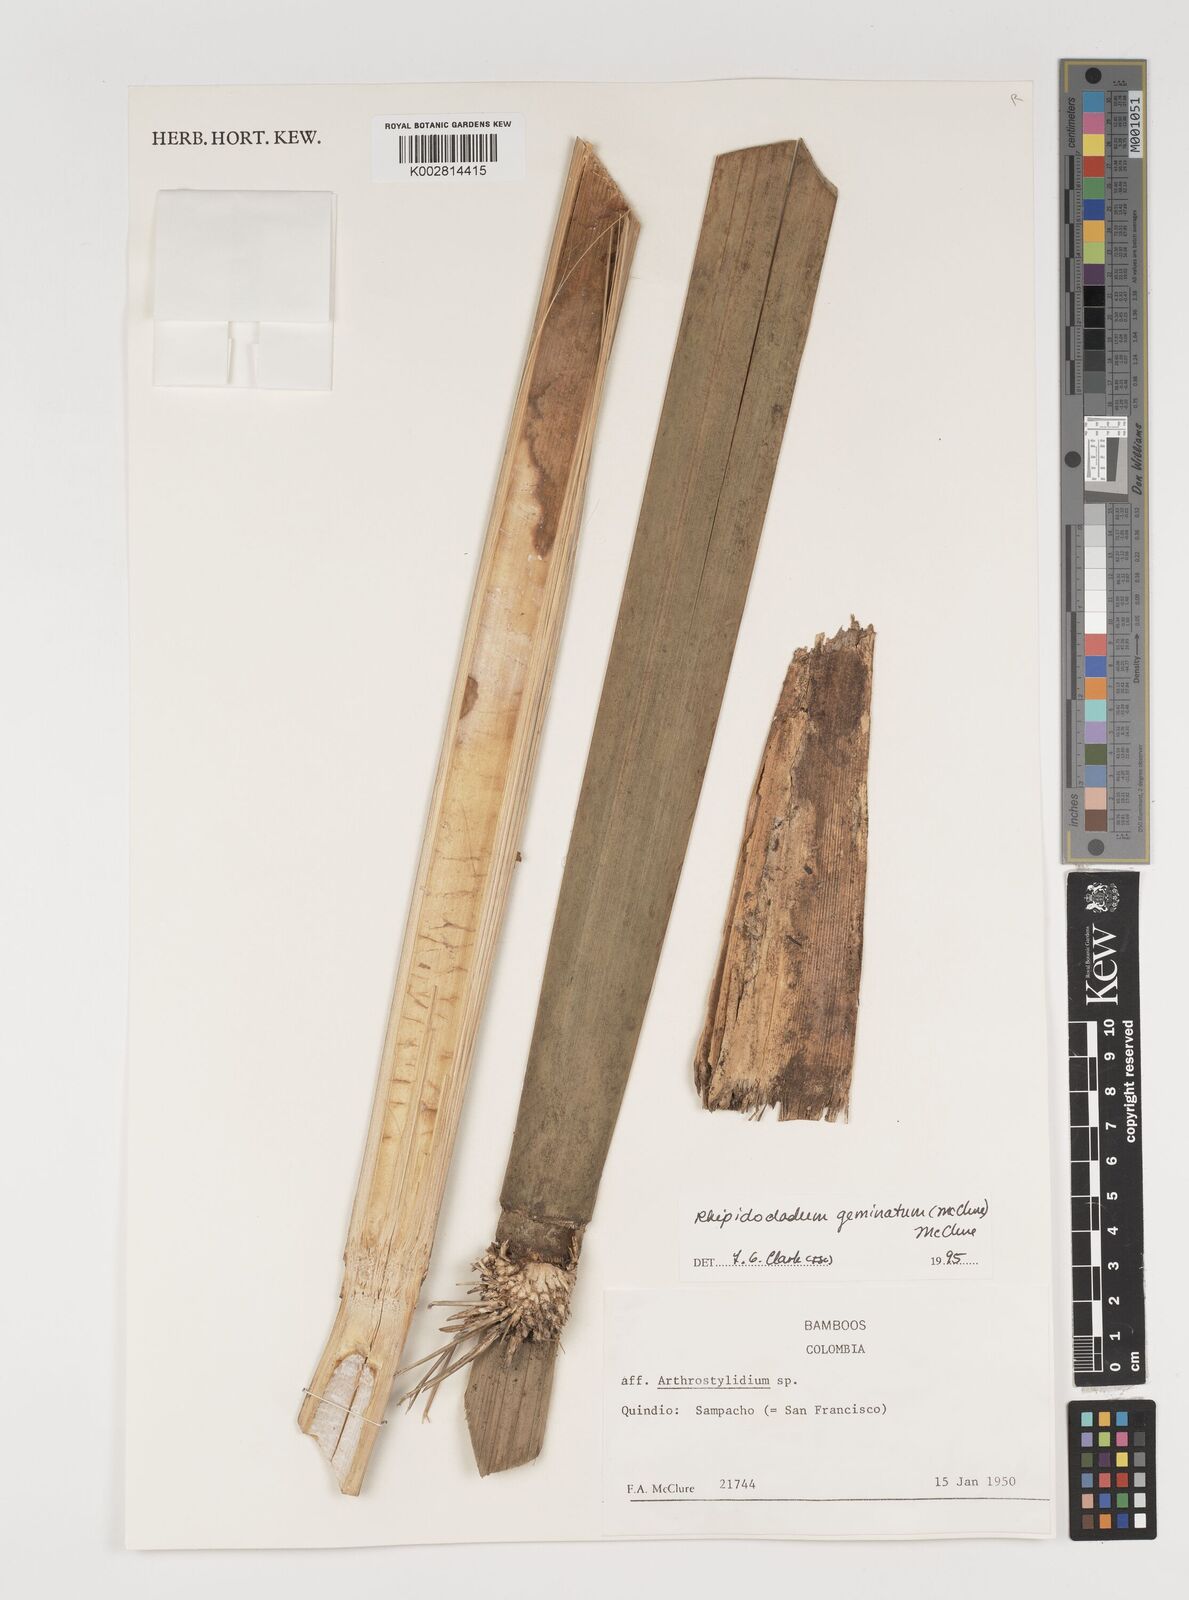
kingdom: Plantae
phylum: Tracheophyta
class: Liliopsida
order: Poales
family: Poaceae
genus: Didymogonyx
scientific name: Didymogonyx geminatum
